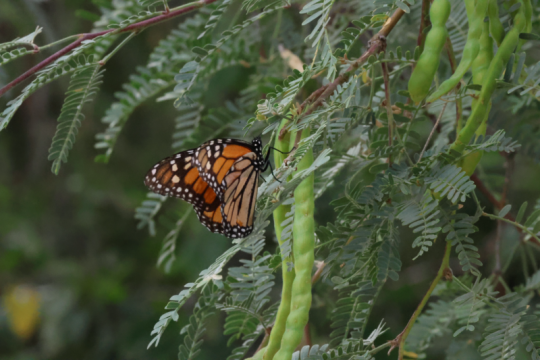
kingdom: Animalia
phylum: Arthropoda
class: Insecta
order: Lepidoptera
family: Nymphalidae
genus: Danaus
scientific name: Danaus plexippus
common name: Monarch
